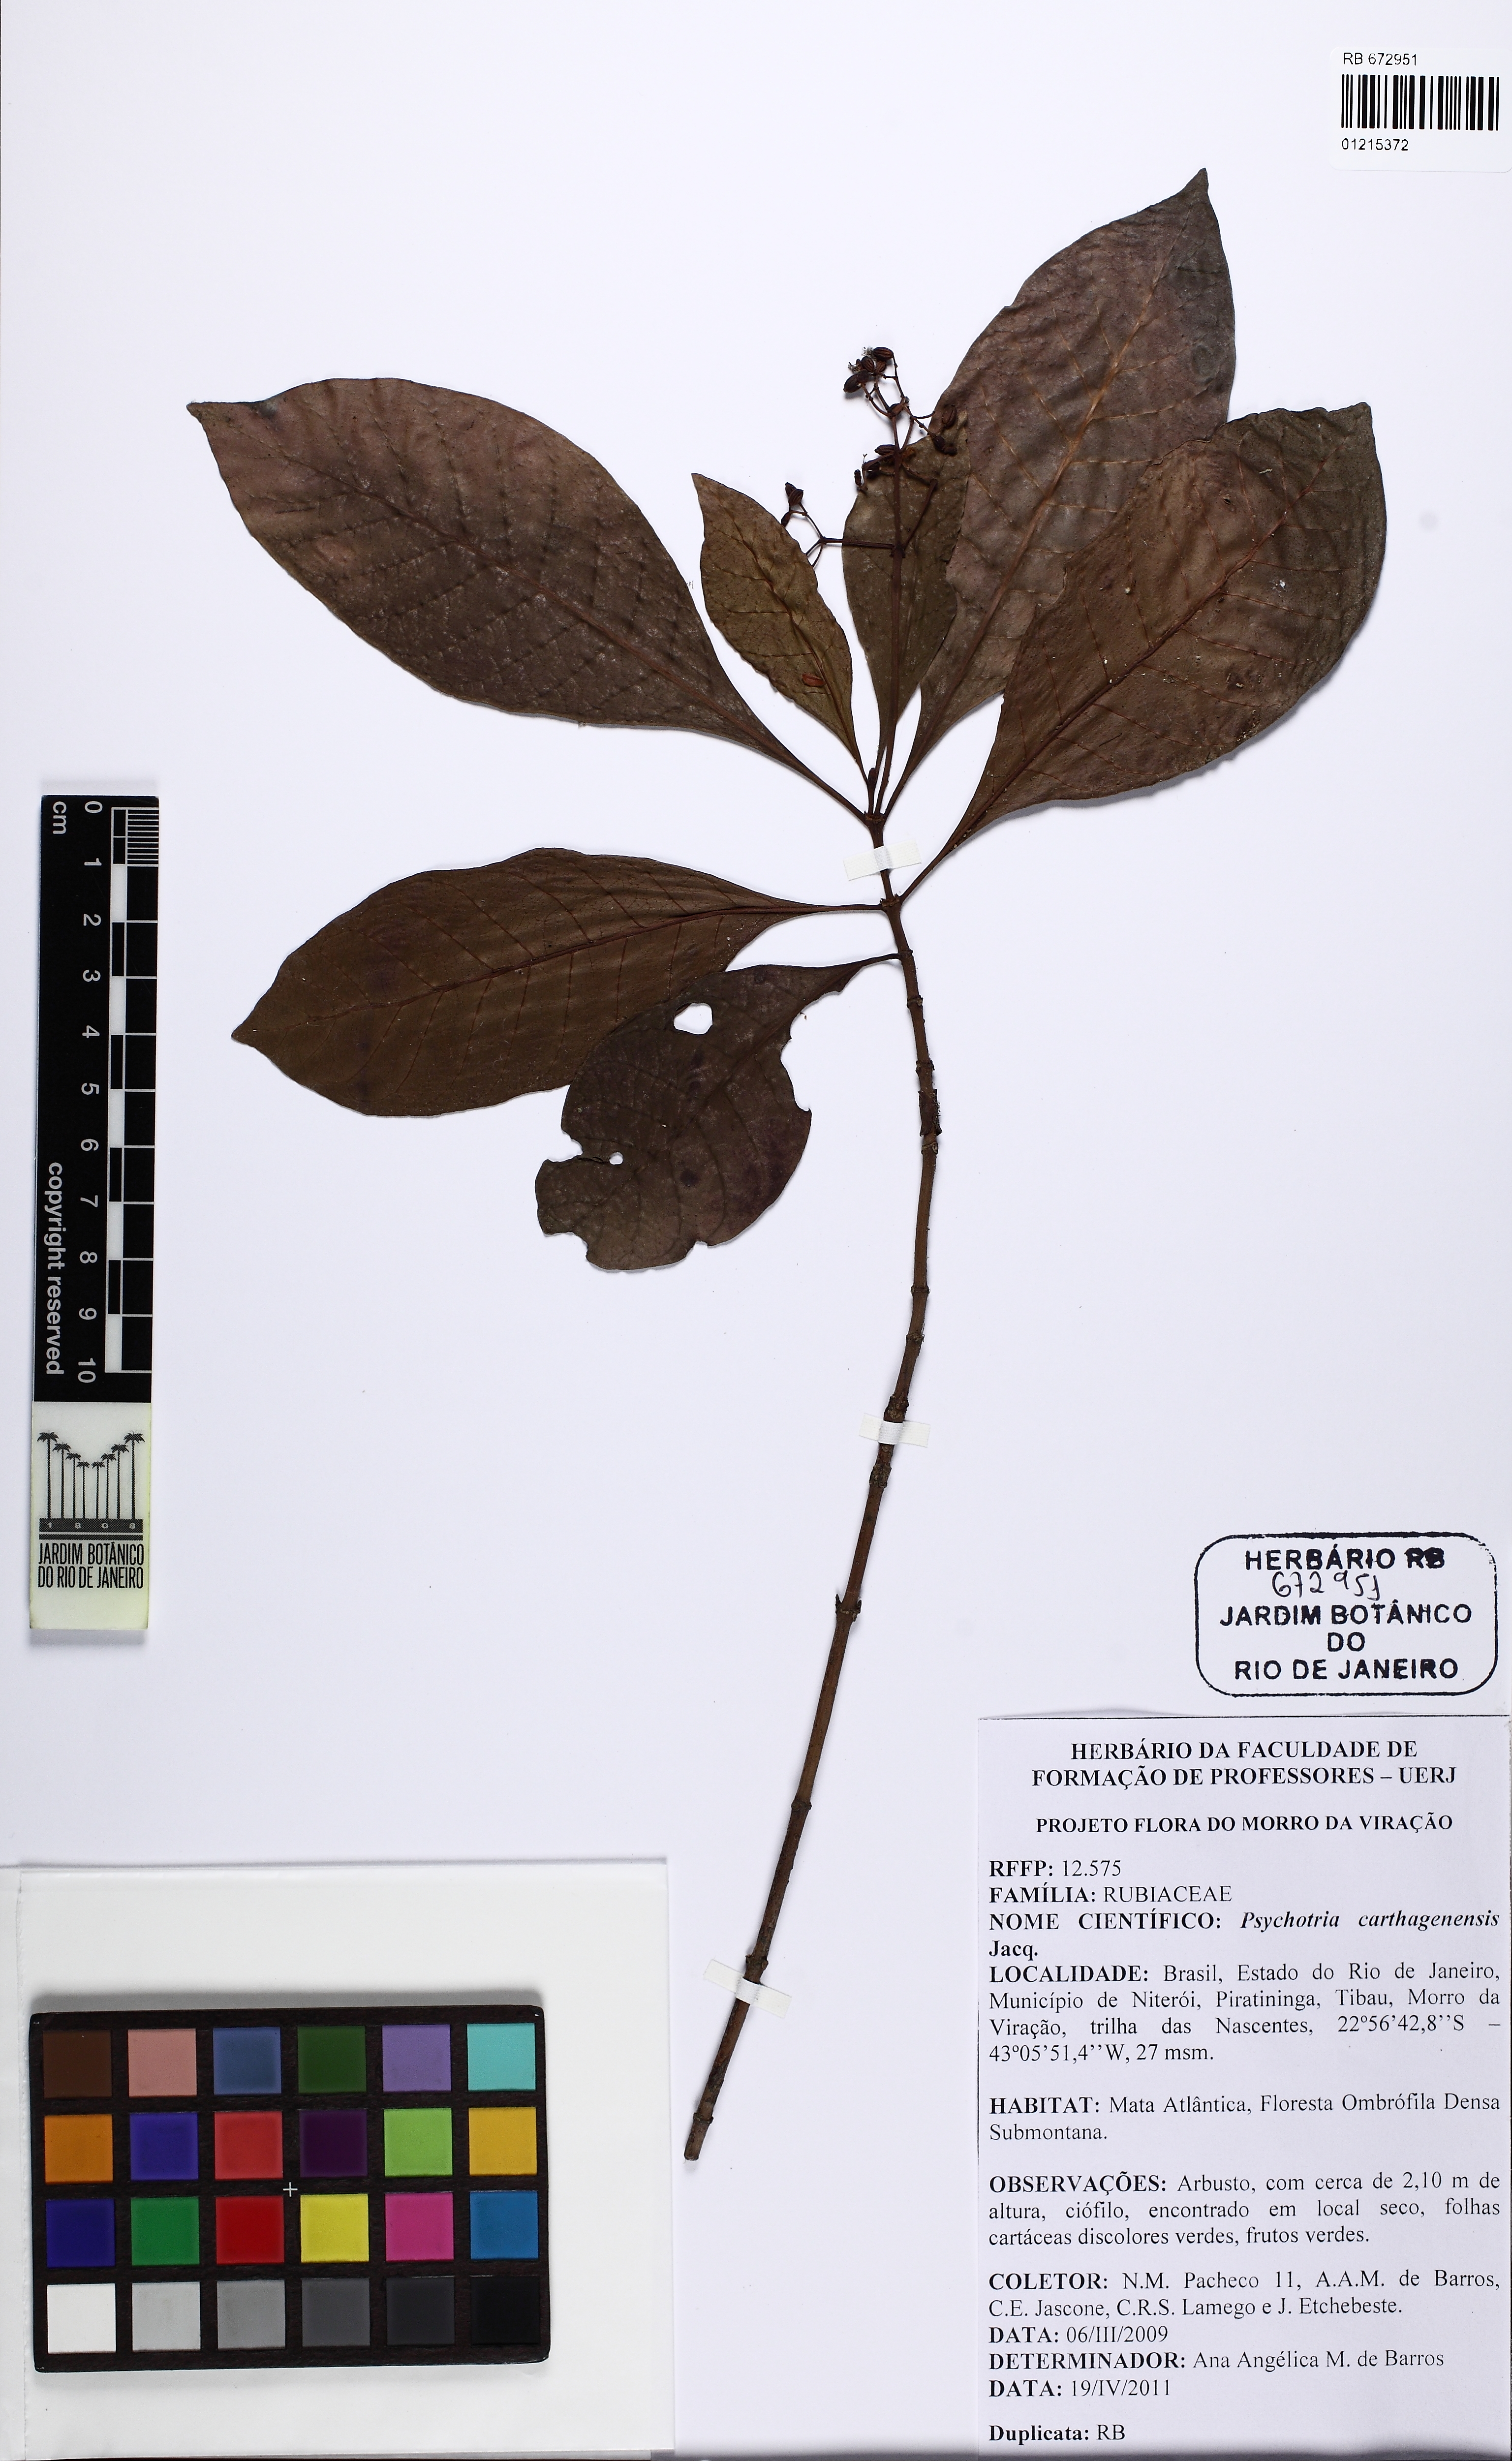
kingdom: Plantae
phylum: Tracheophyta
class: Magnoliopsida
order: Gentianales
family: Rubiaceae
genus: Psychotria
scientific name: Psychotria carthagenensis
